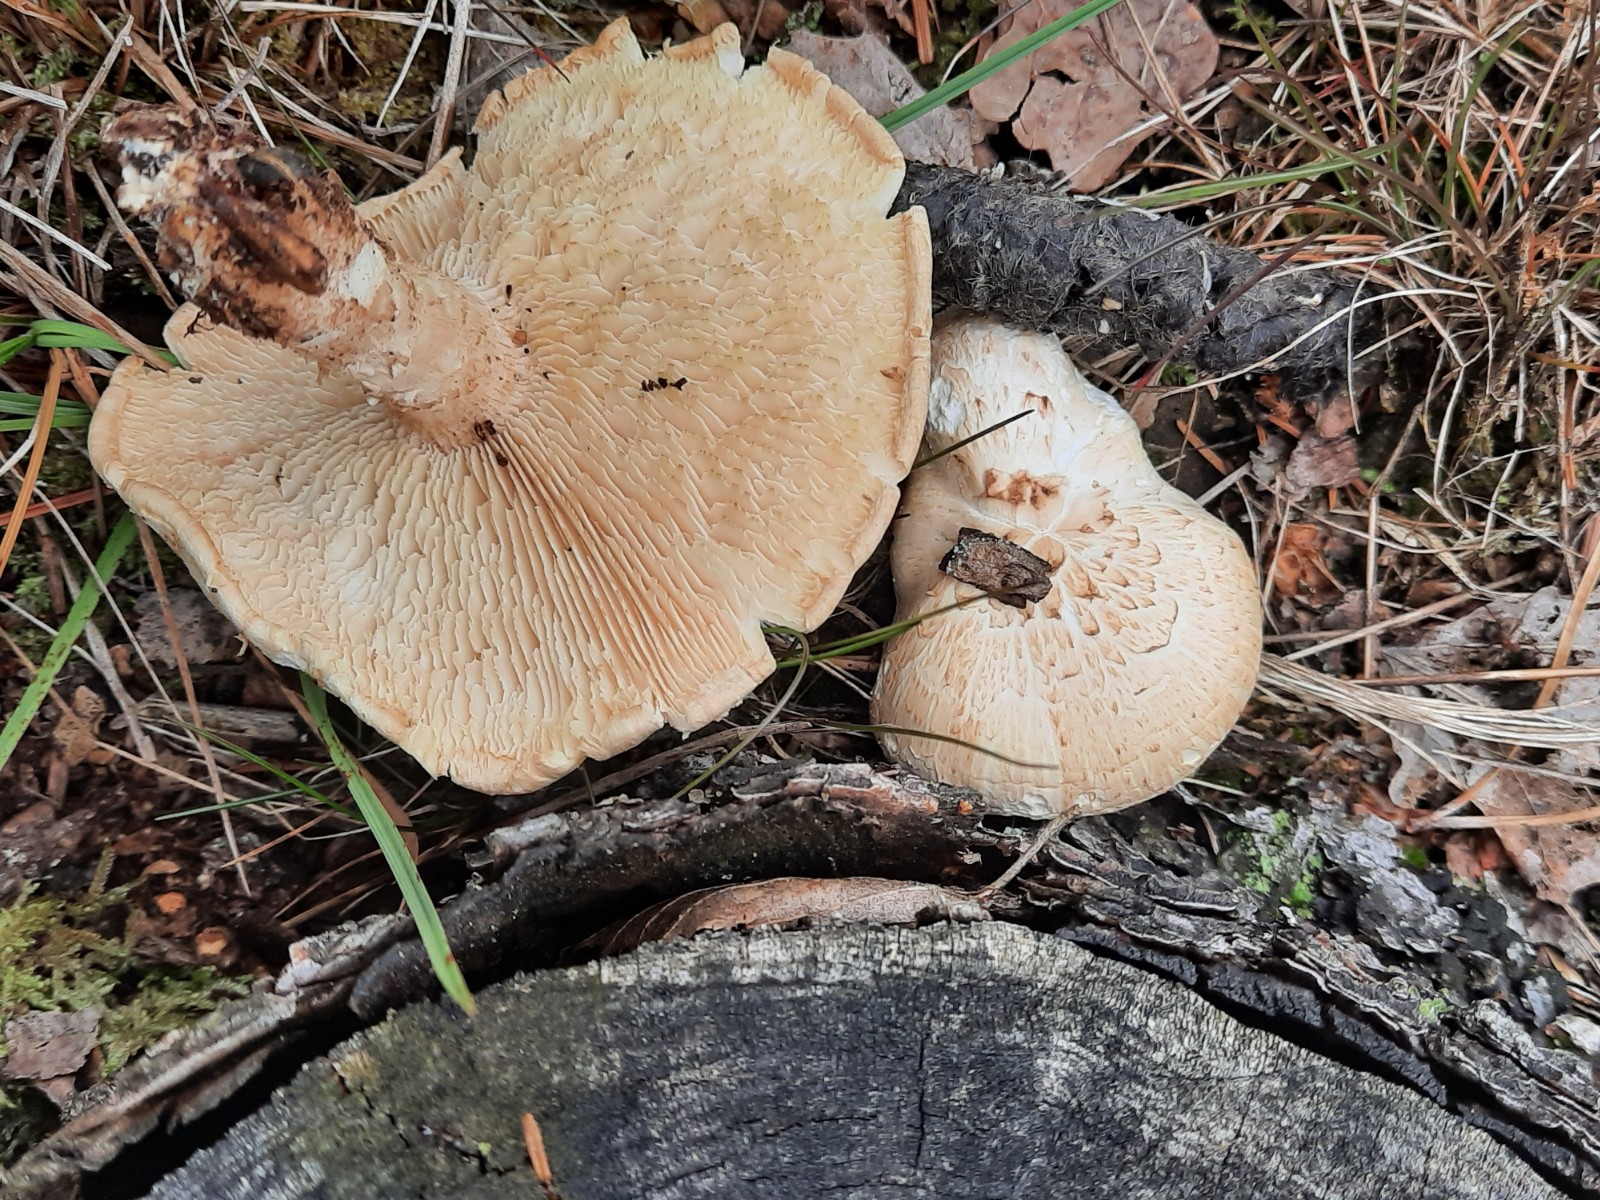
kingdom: Fungi
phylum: Basidiomycota
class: Agaricomycetes
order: Gloeophyllales
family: Gloeophyllaceae
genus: Neolentinus
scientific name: Neolentinus lepideus
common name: skællet sejhat
